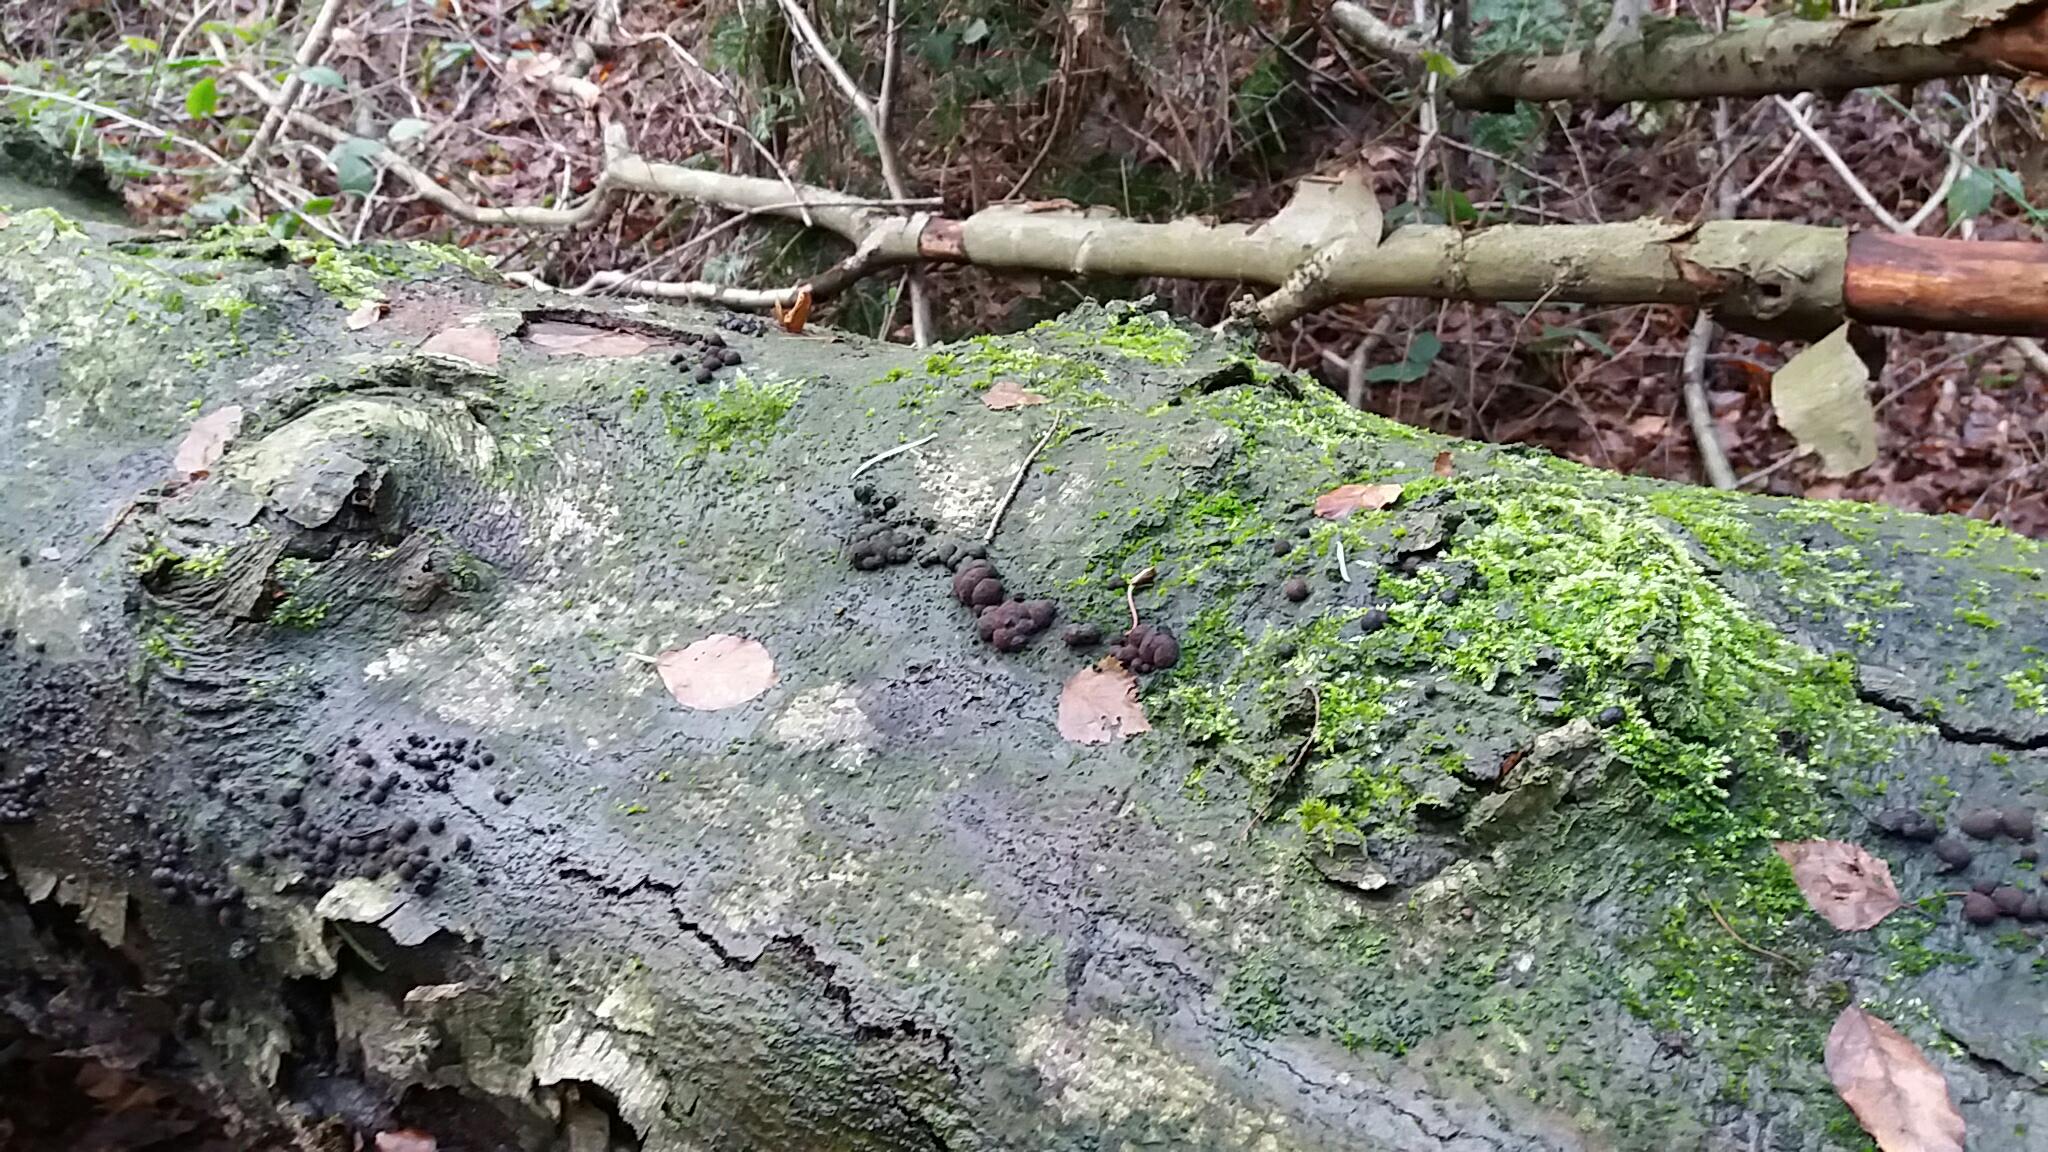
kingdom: Fungi
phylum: Ascomycota
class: Sordariomycetes
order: Xylariales
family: Hypoxylaceae
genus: Hypoxylon
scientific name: Hypoxylon fragiforme
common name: kuljordbær
